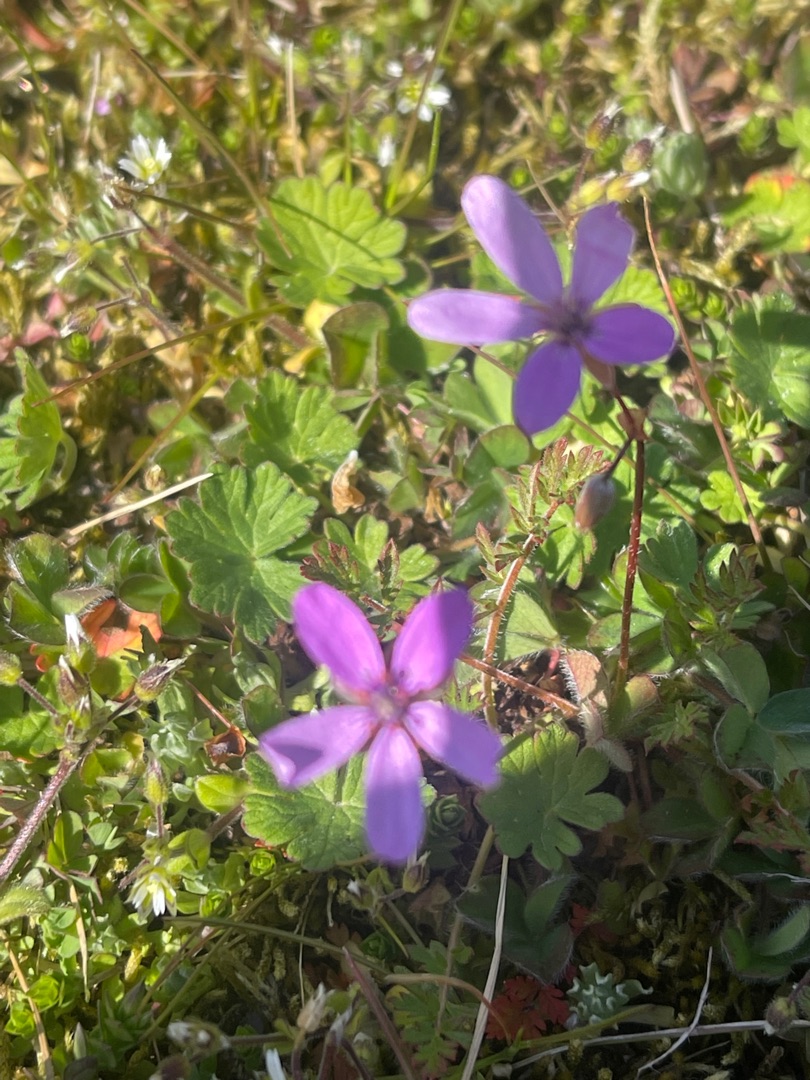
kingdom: Plantae
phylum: Tracheophyta
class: Magnoliopsida
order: Geraniales
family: Geraniaceae
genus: Erodium
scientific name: Erodium cicutarium
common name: Hejrenæb
